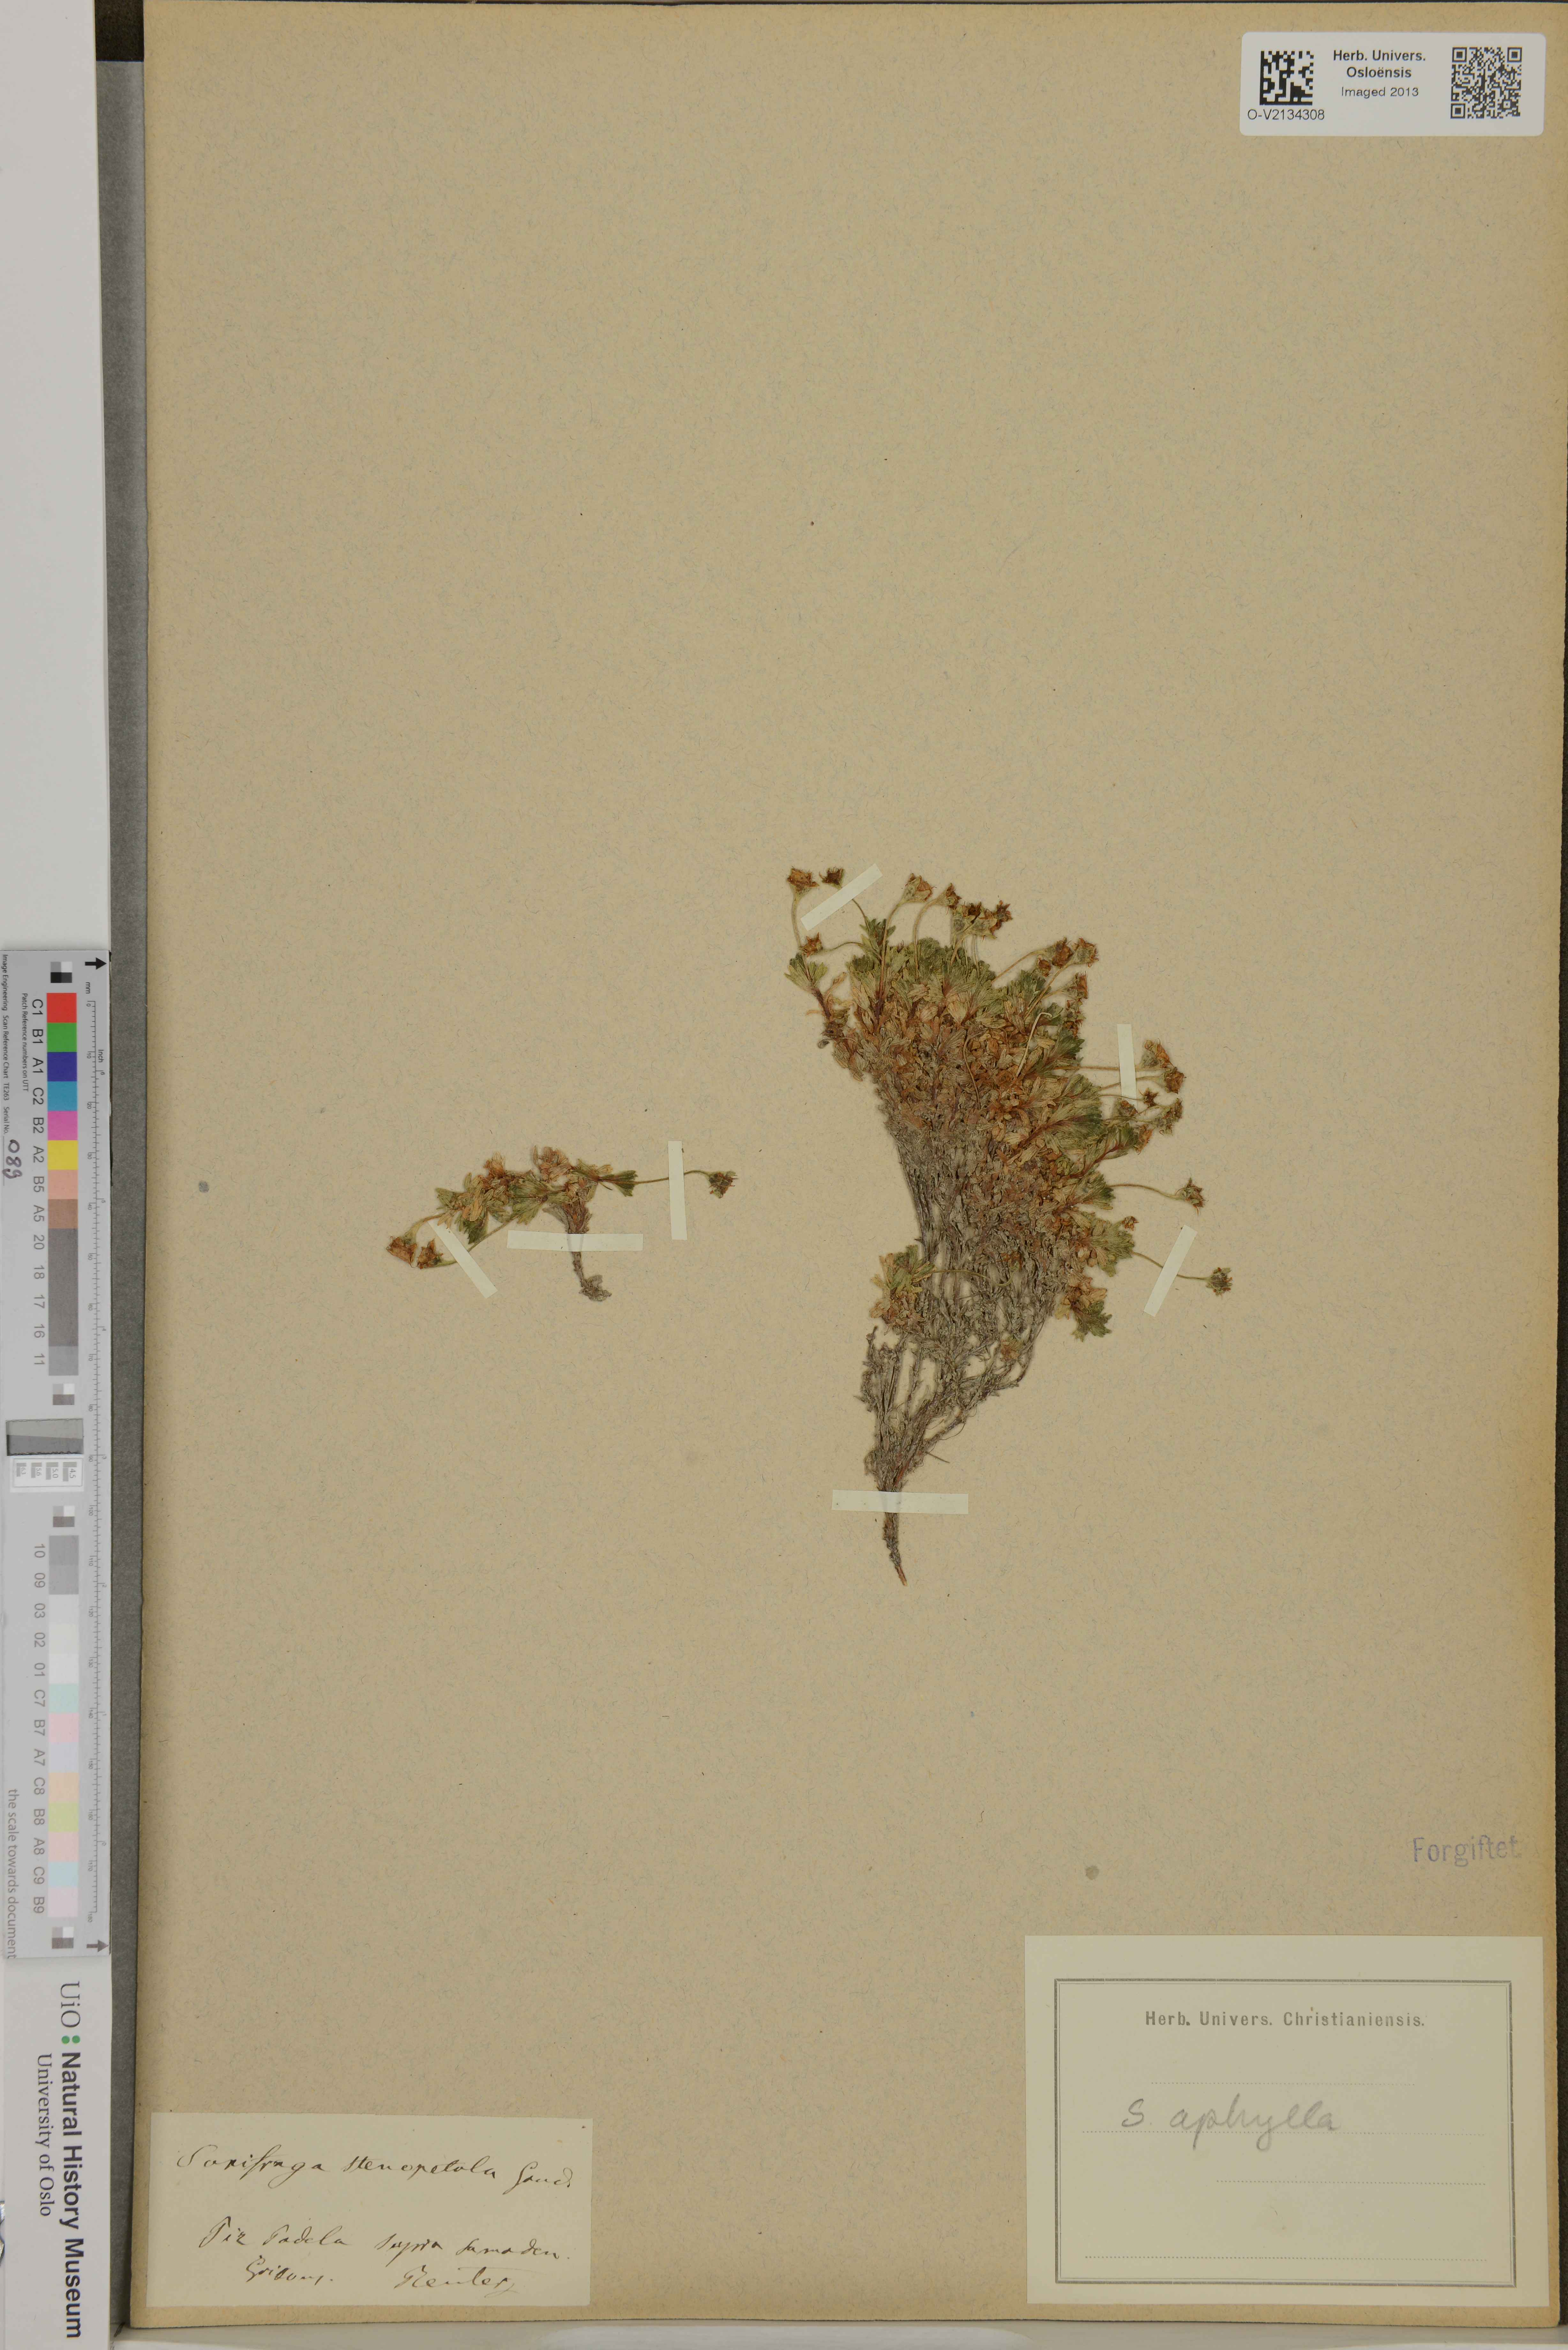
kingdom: Plantae
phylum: Tracheophyta
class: Magnoliopsida
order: Saxifragales
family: Saxifragaceae
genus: Saxifraga
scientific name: Saxifraga aphylla
